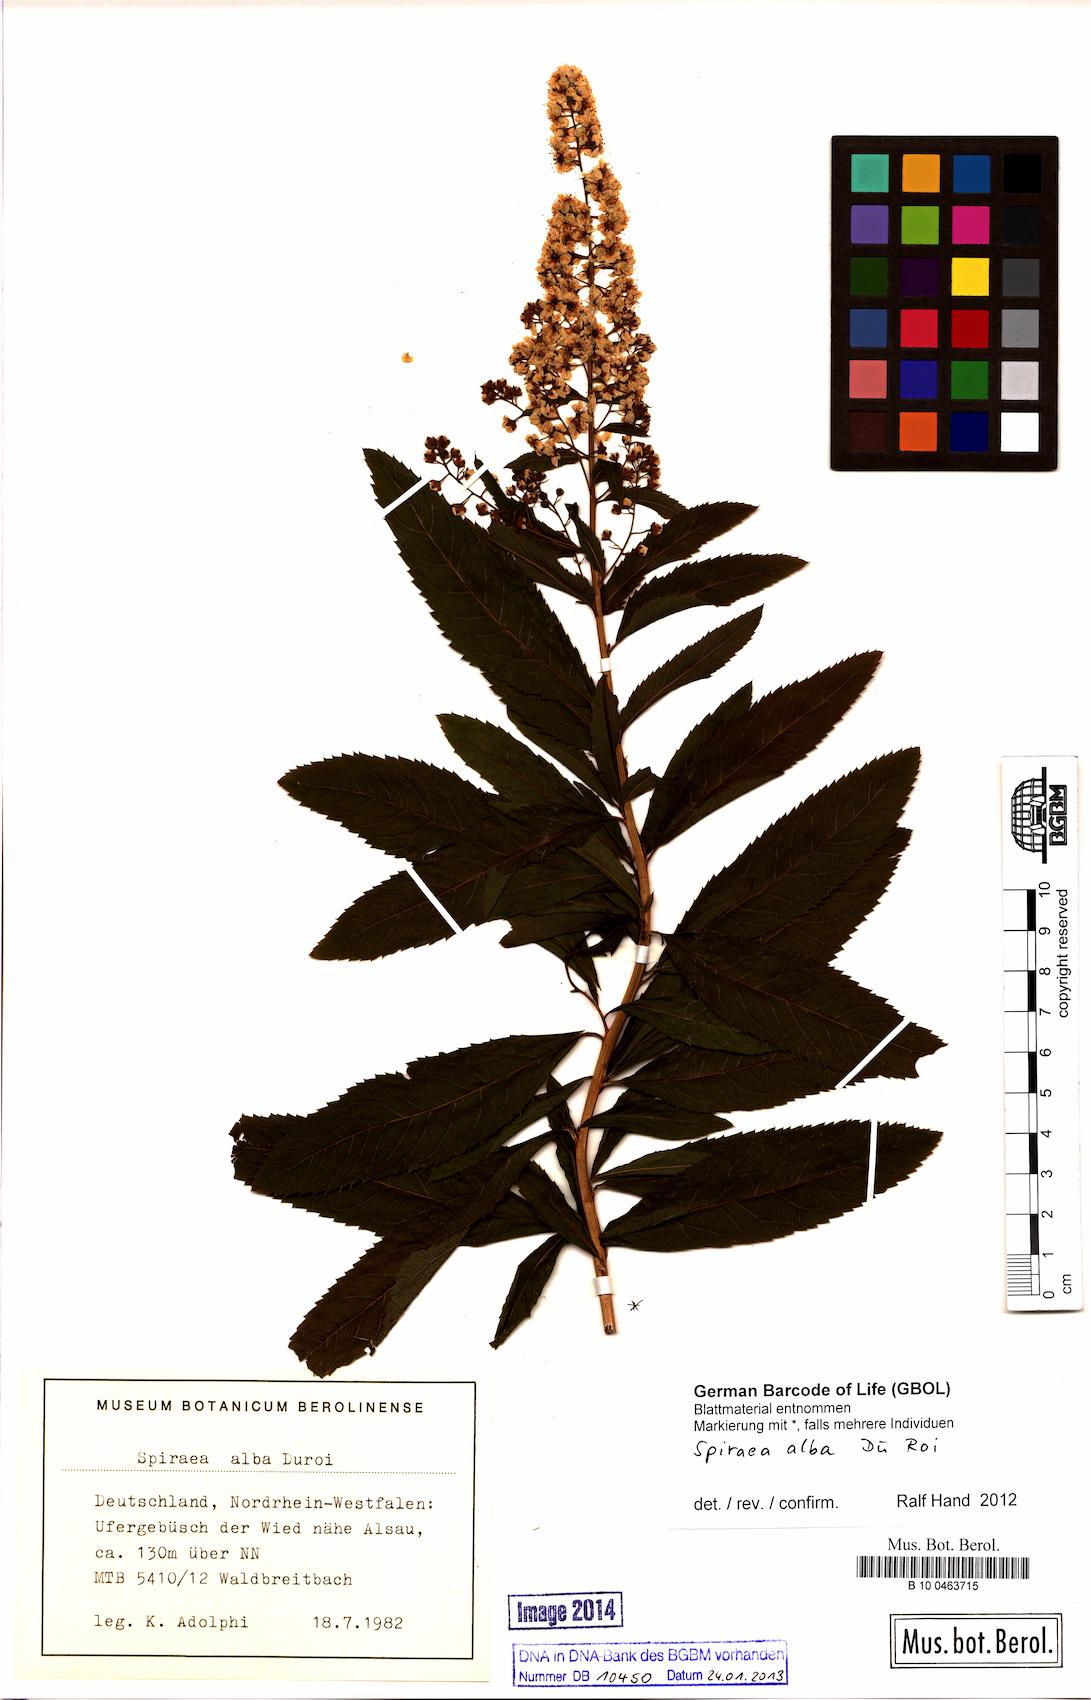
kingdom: Plantae
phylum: Tracheophyta
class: Magnoliopsida
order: Rosales
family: Rosaceae
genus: Spiraea
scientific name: Spiraea alba
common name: Pale bridewort
